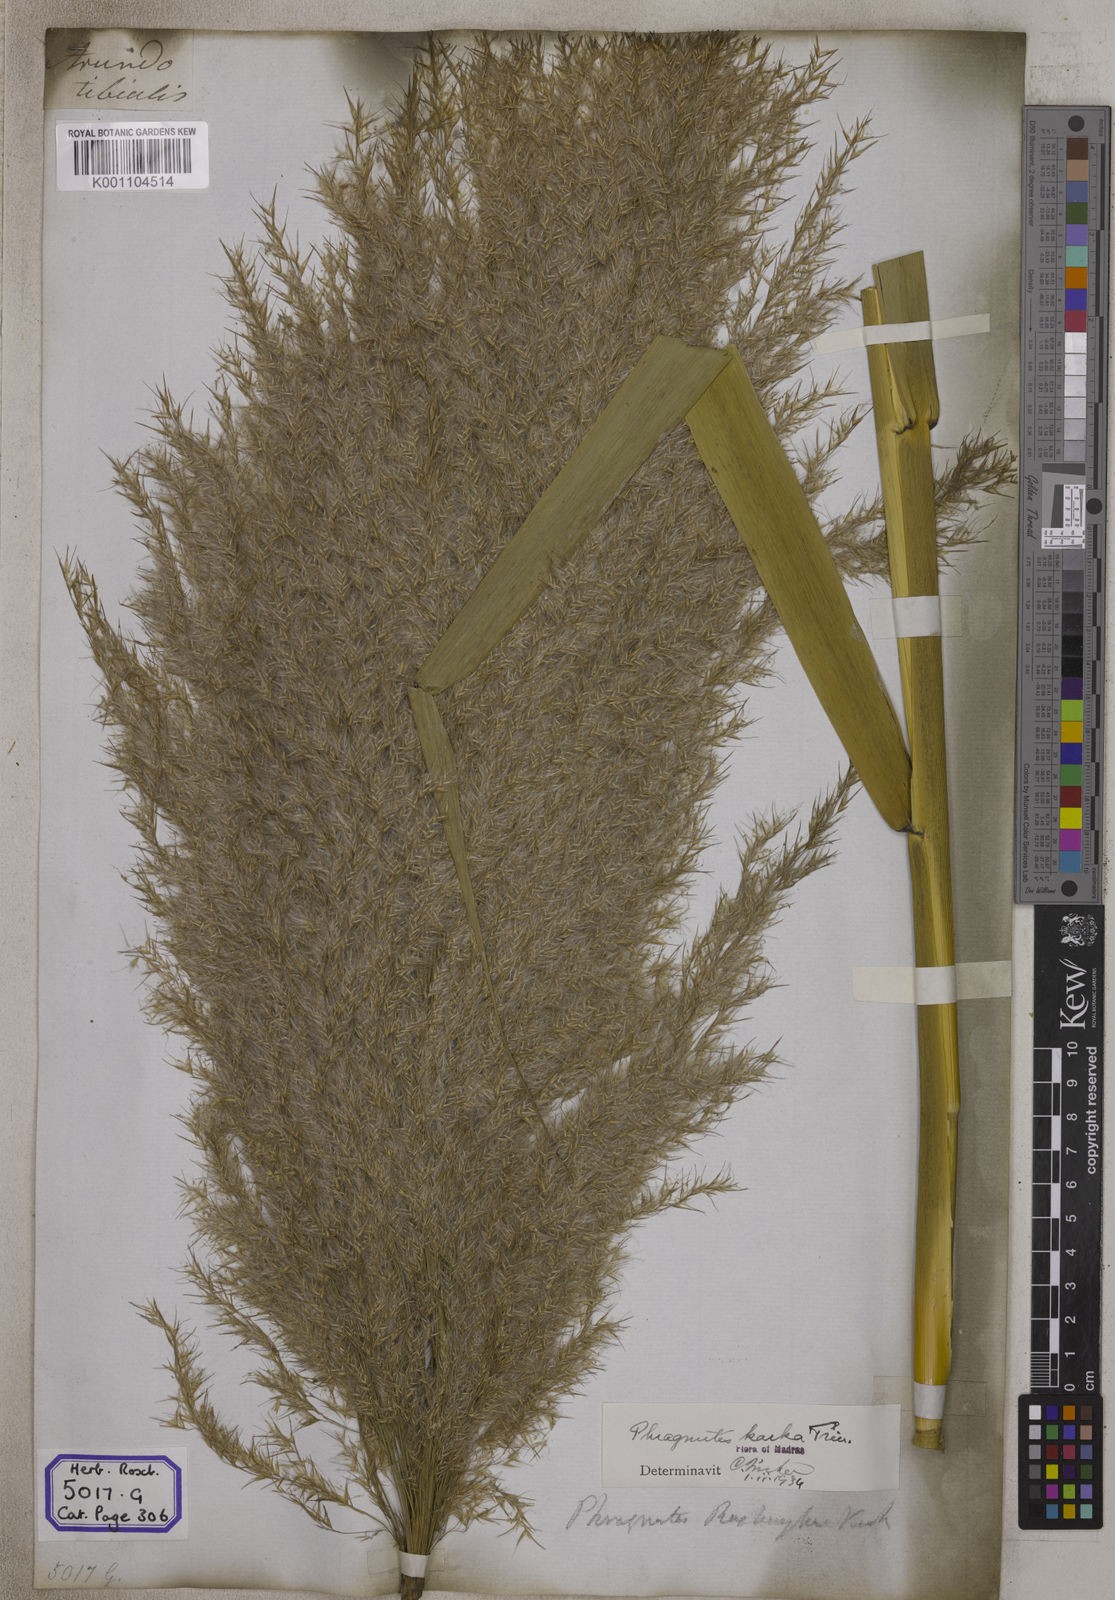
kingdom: Plantae
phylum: Tracheophyta
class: Liliopsida
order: Poales
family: Poaceae
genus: Arundo
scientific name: Arundo
